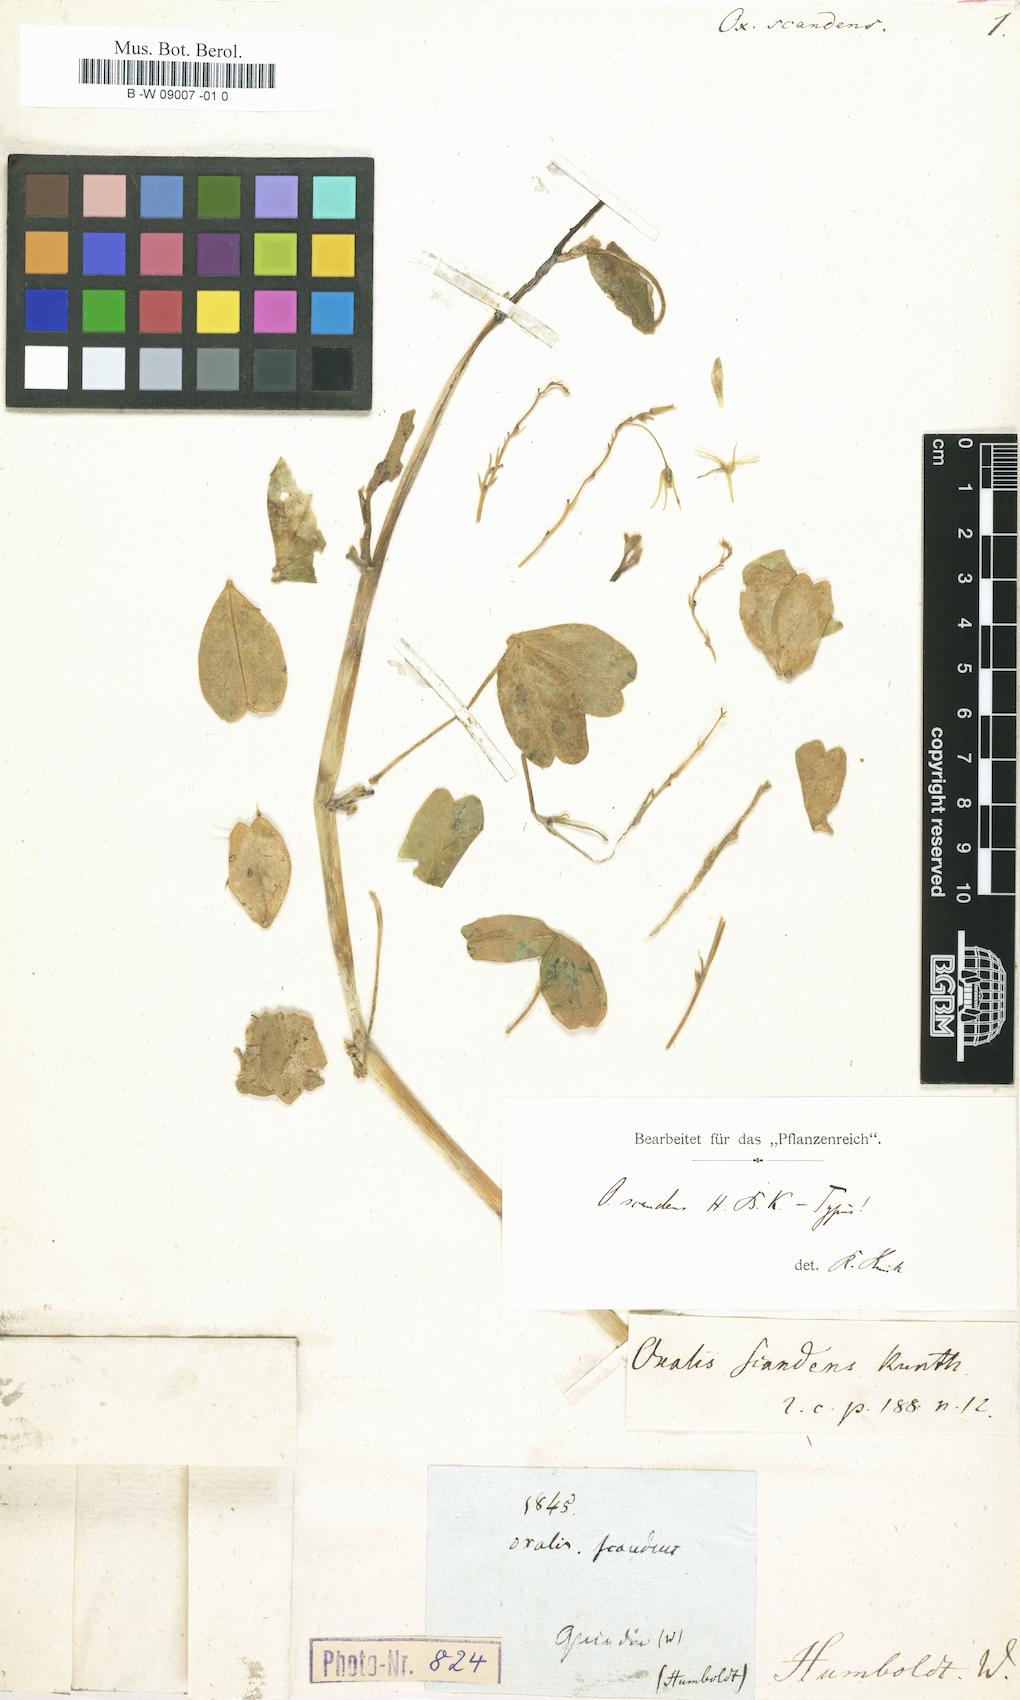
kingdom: Plantae
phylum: Tracheophyta
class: Magnoliopsida
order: Oxalidales
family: Oxalidaceae
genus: Oxalis
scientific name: Oxalis scandens
